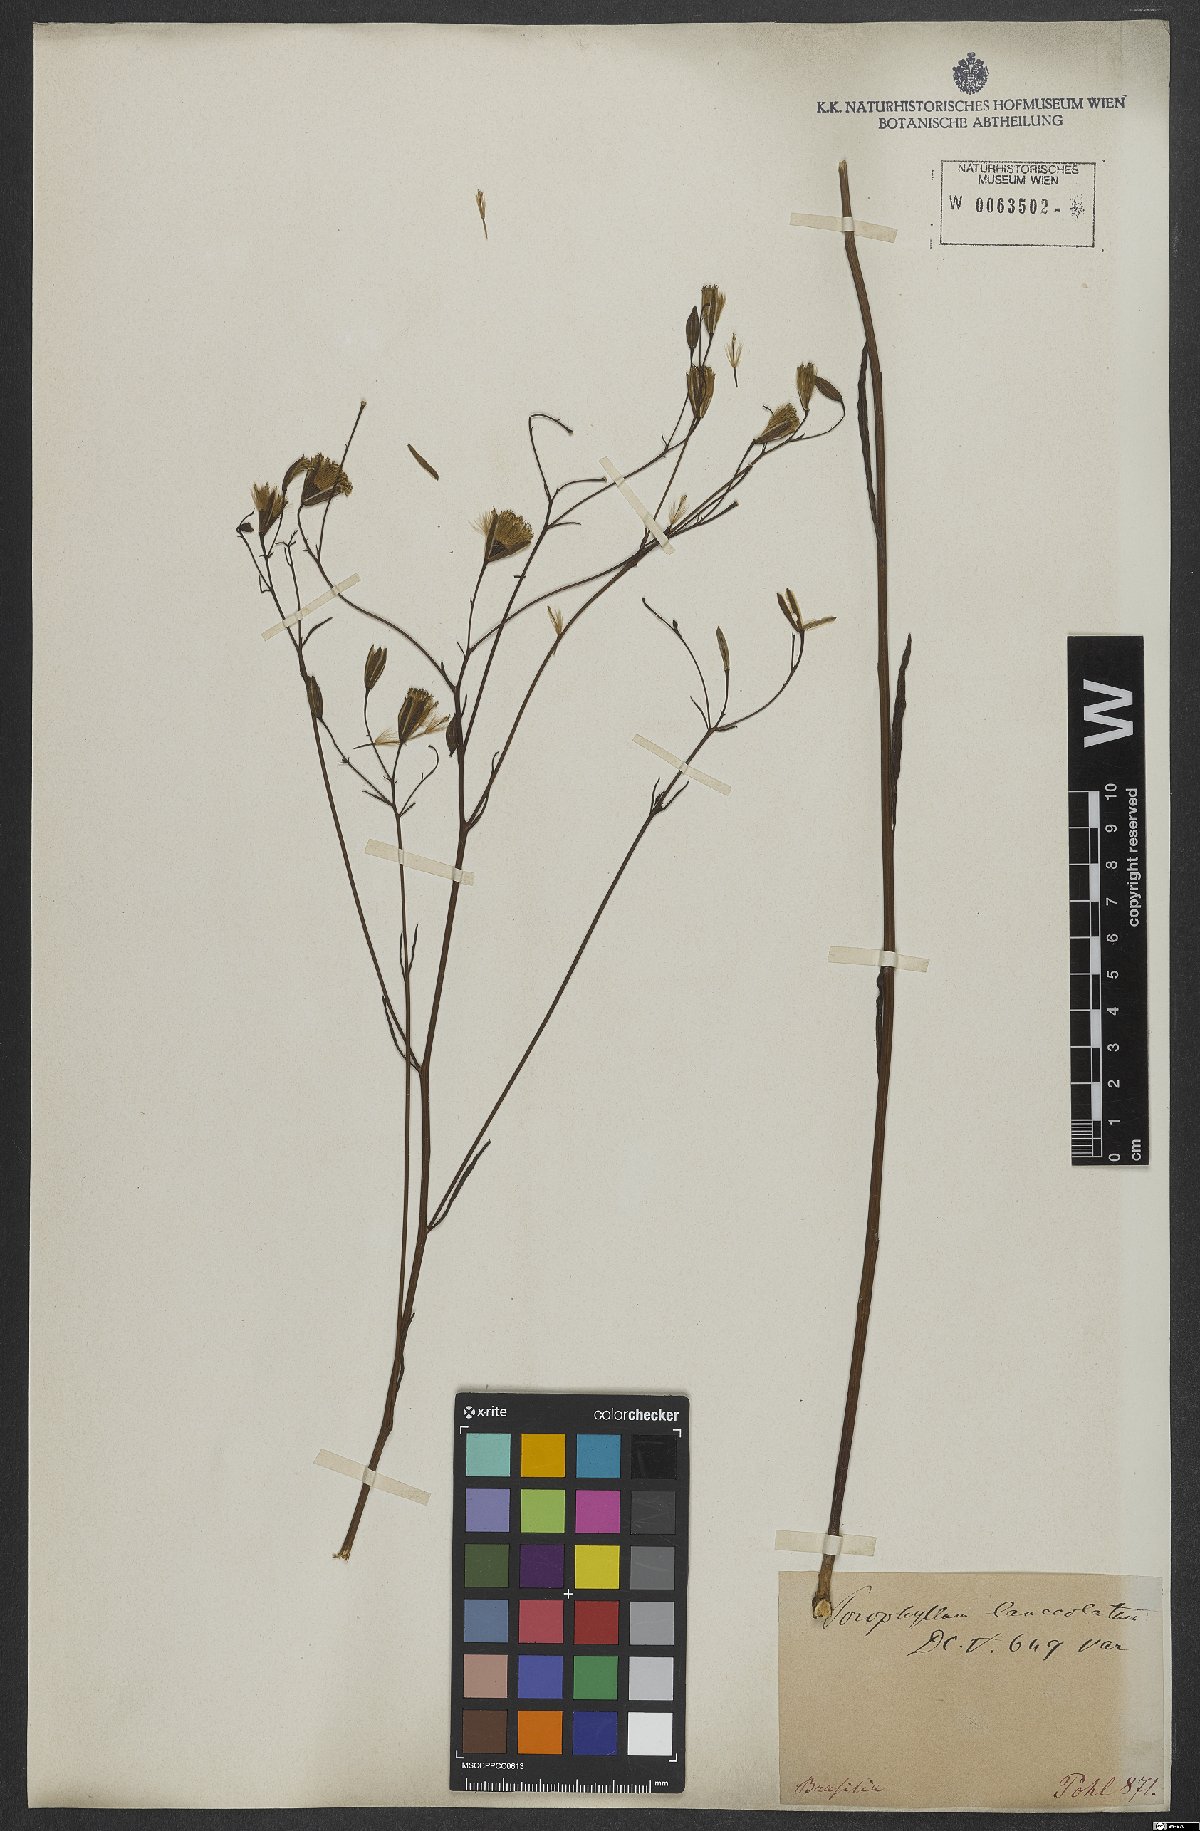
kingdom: Plantae
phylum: Tracheophyta
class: Magnoliopsida
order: Asterales
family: Asteraceae
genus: Porophyllum
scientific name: Porophyllum lanceolatum
